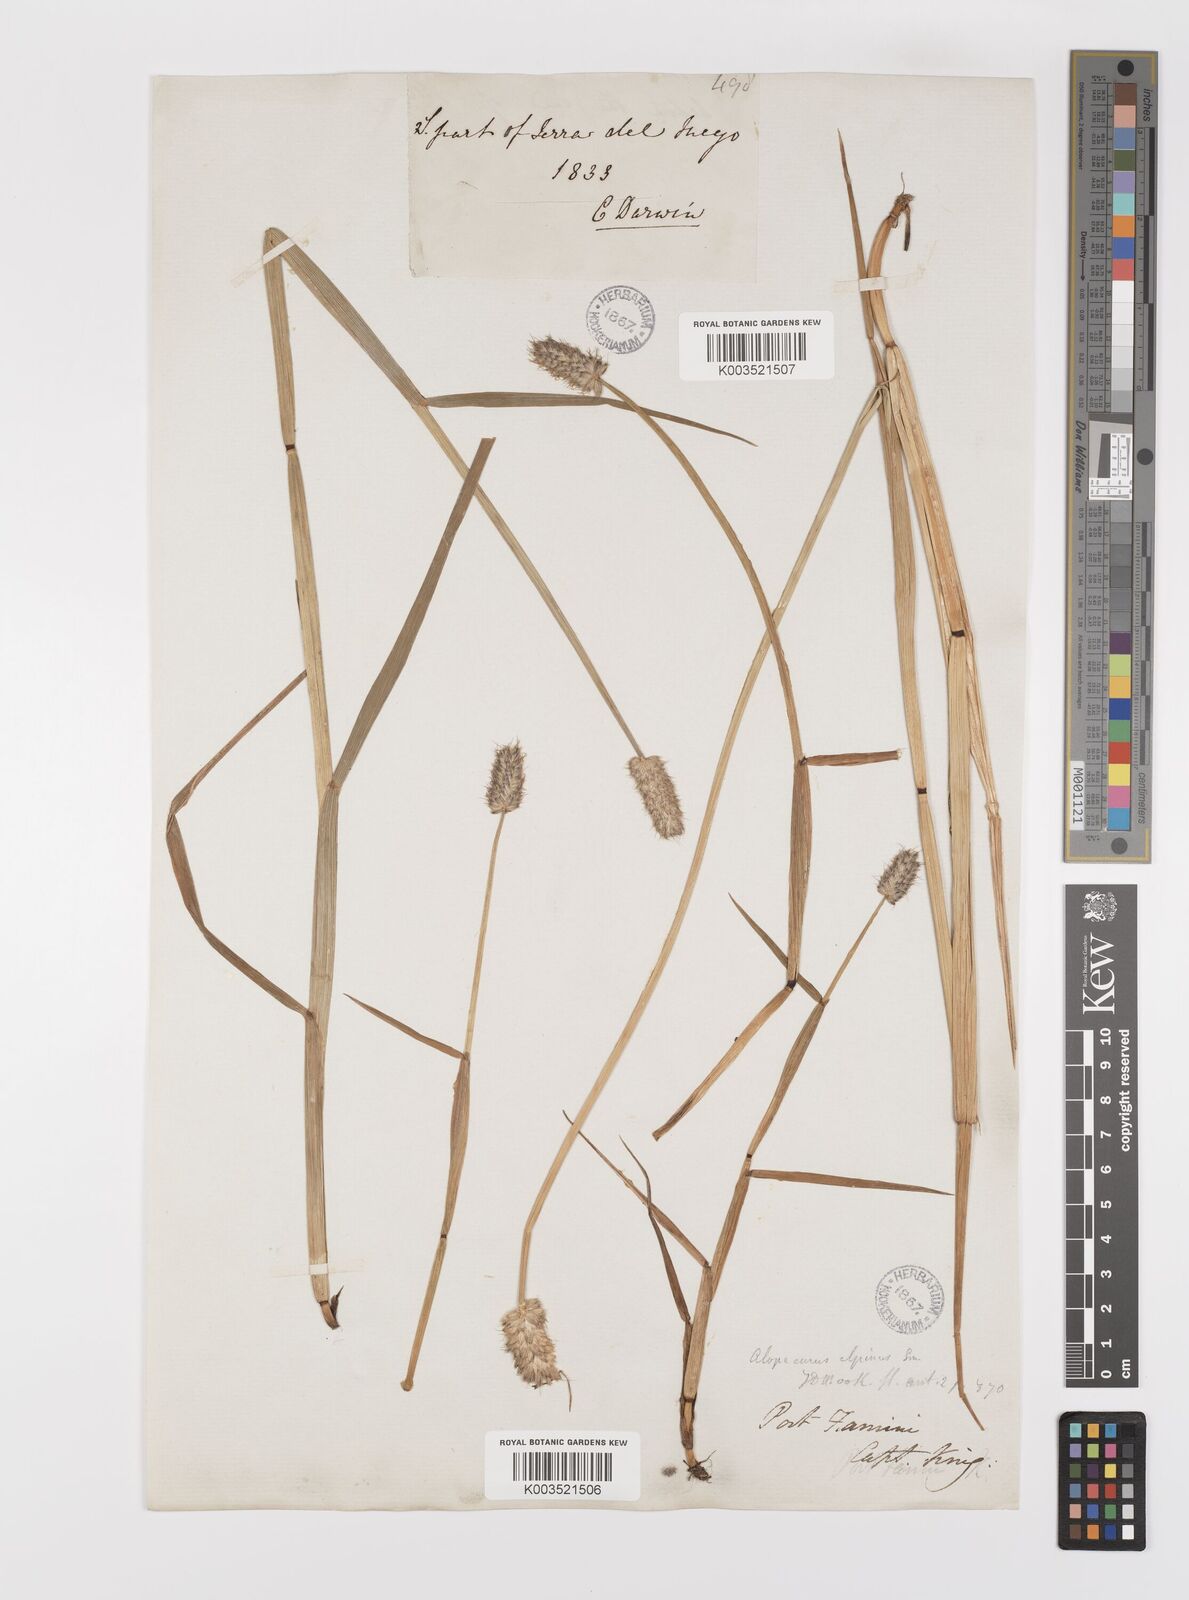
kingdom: Plantae
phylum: Tracheophyta
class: Liliopsida
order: Poales
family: Poaceae
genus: Alopecurus
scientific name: Alopecurus magellanicus
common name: Alpine foxtail
